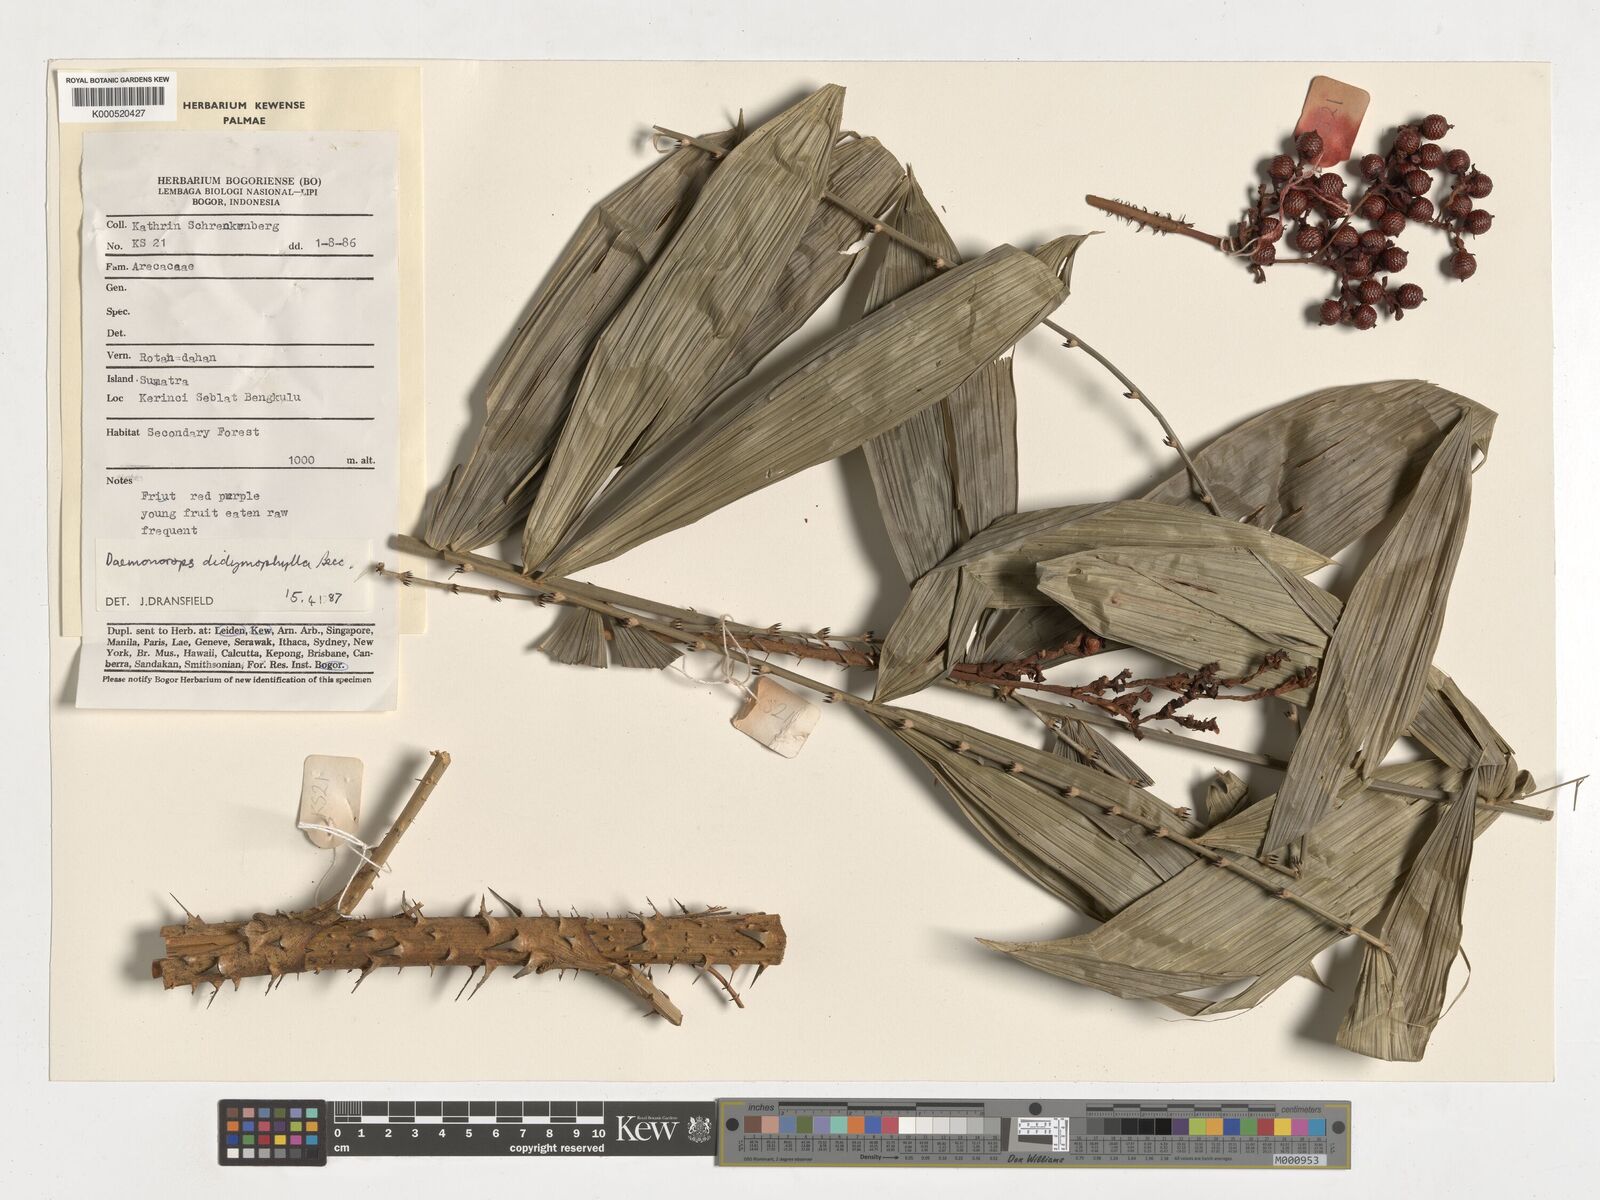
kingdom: Plantae
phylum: Tracheophyta
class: Liliopsida
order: Arecales
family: Arecaceae
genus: Calamus
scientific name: Calamus gracilipes
